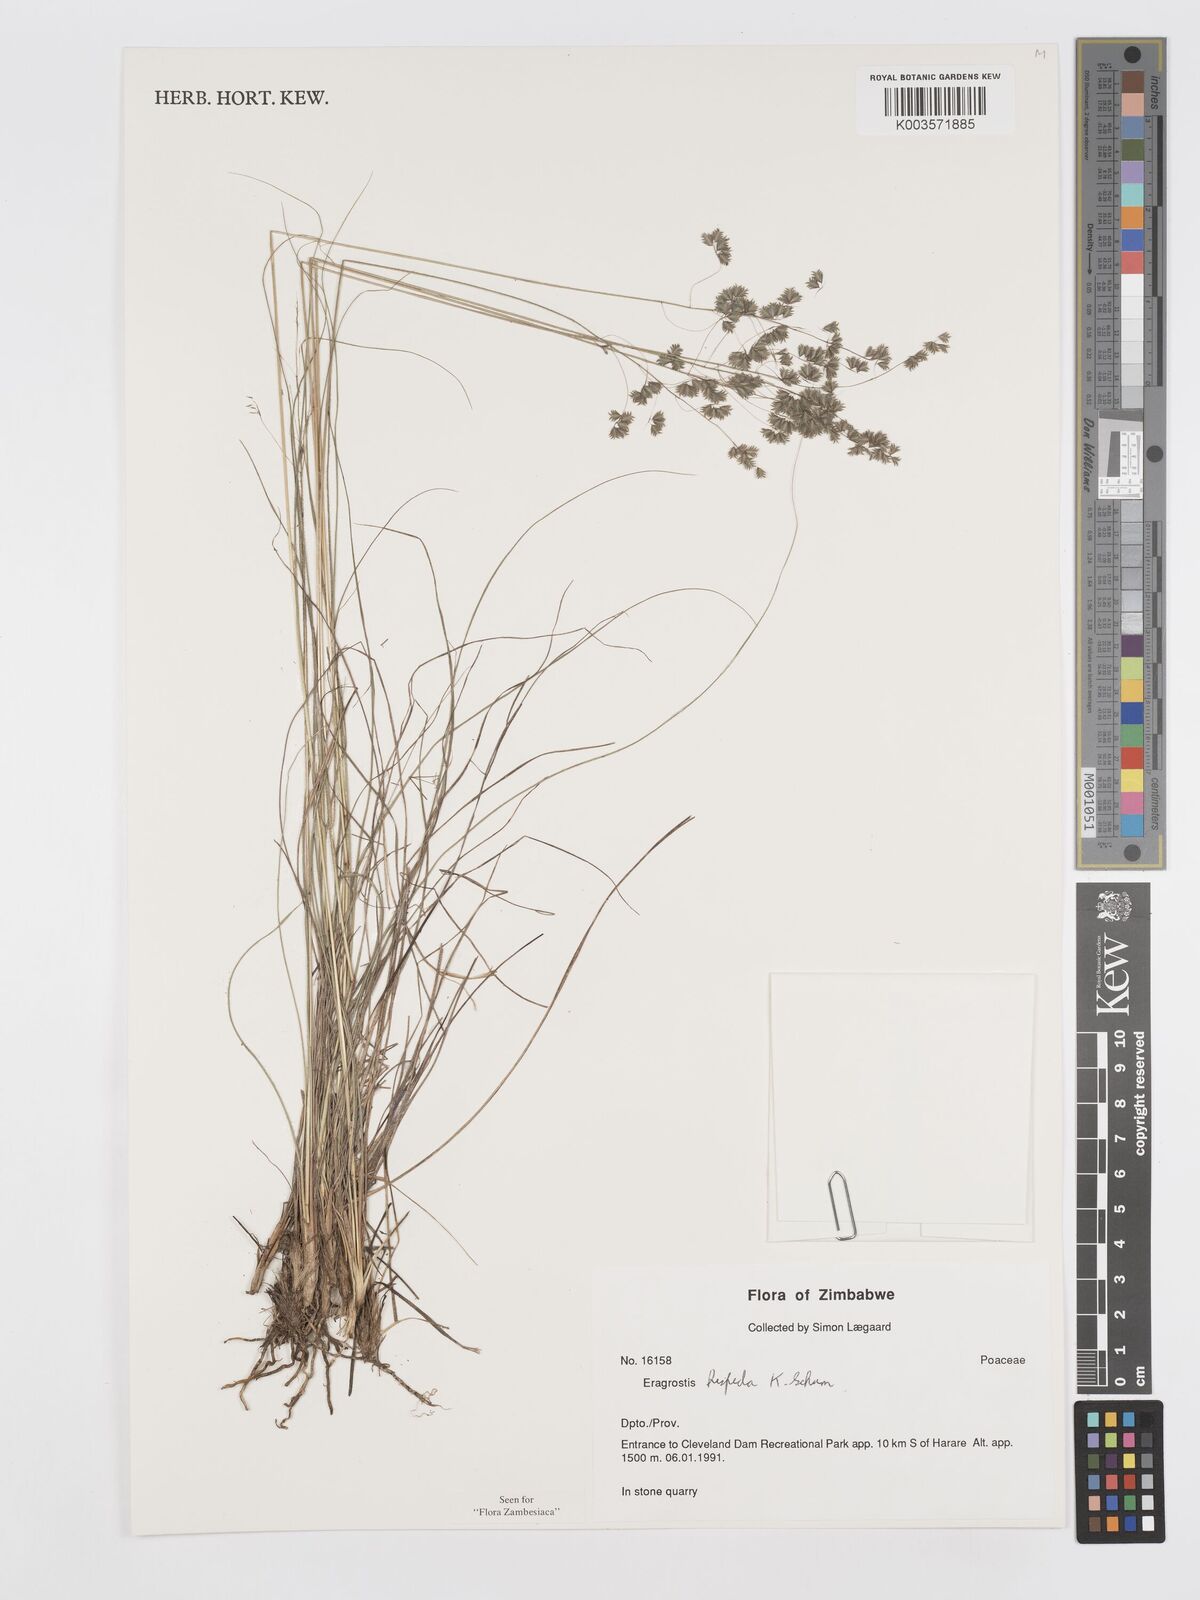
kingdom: Plantae
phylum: Tracheophyta
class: Liliopsida
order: Poales
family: Poaceae
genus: Eragrostis
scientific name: Eragrostis hispida
